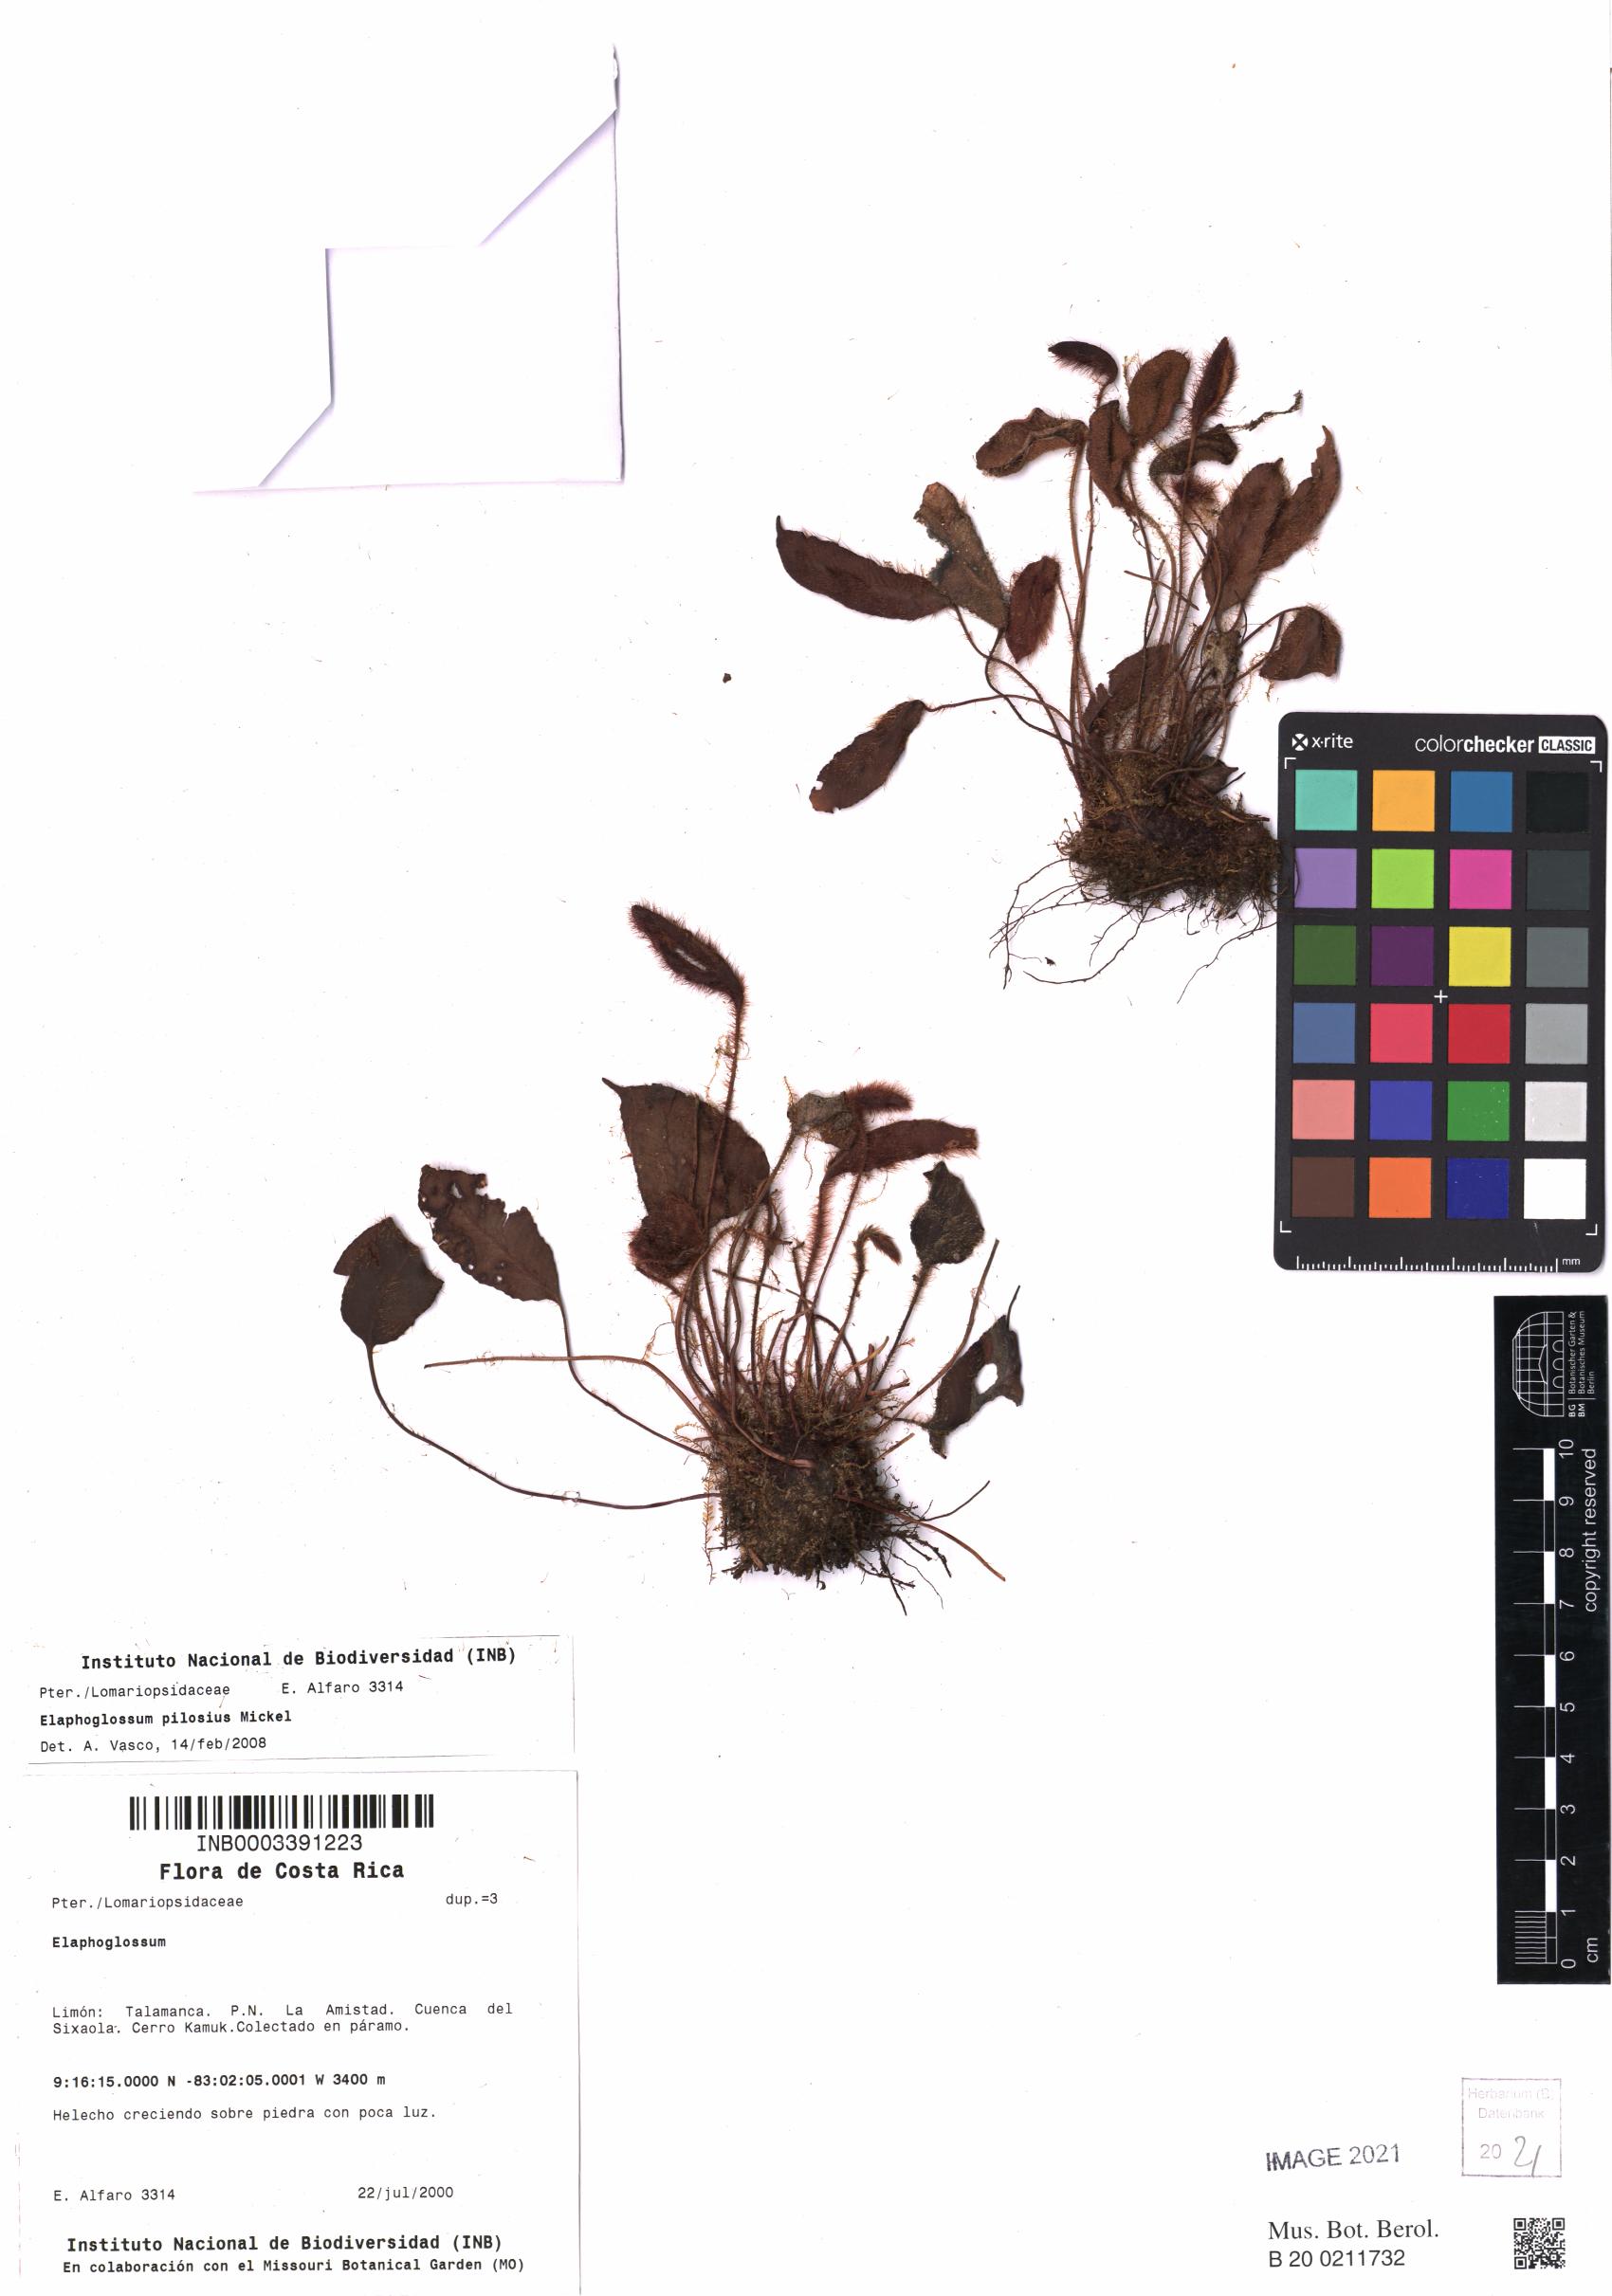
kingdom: Plantae
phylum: Tracheophyta
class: Polypodiopsida
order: Polypodiales
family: Dryopteridaceae
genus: Elaphoglossum
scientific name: Elaphoglossum pilosius
